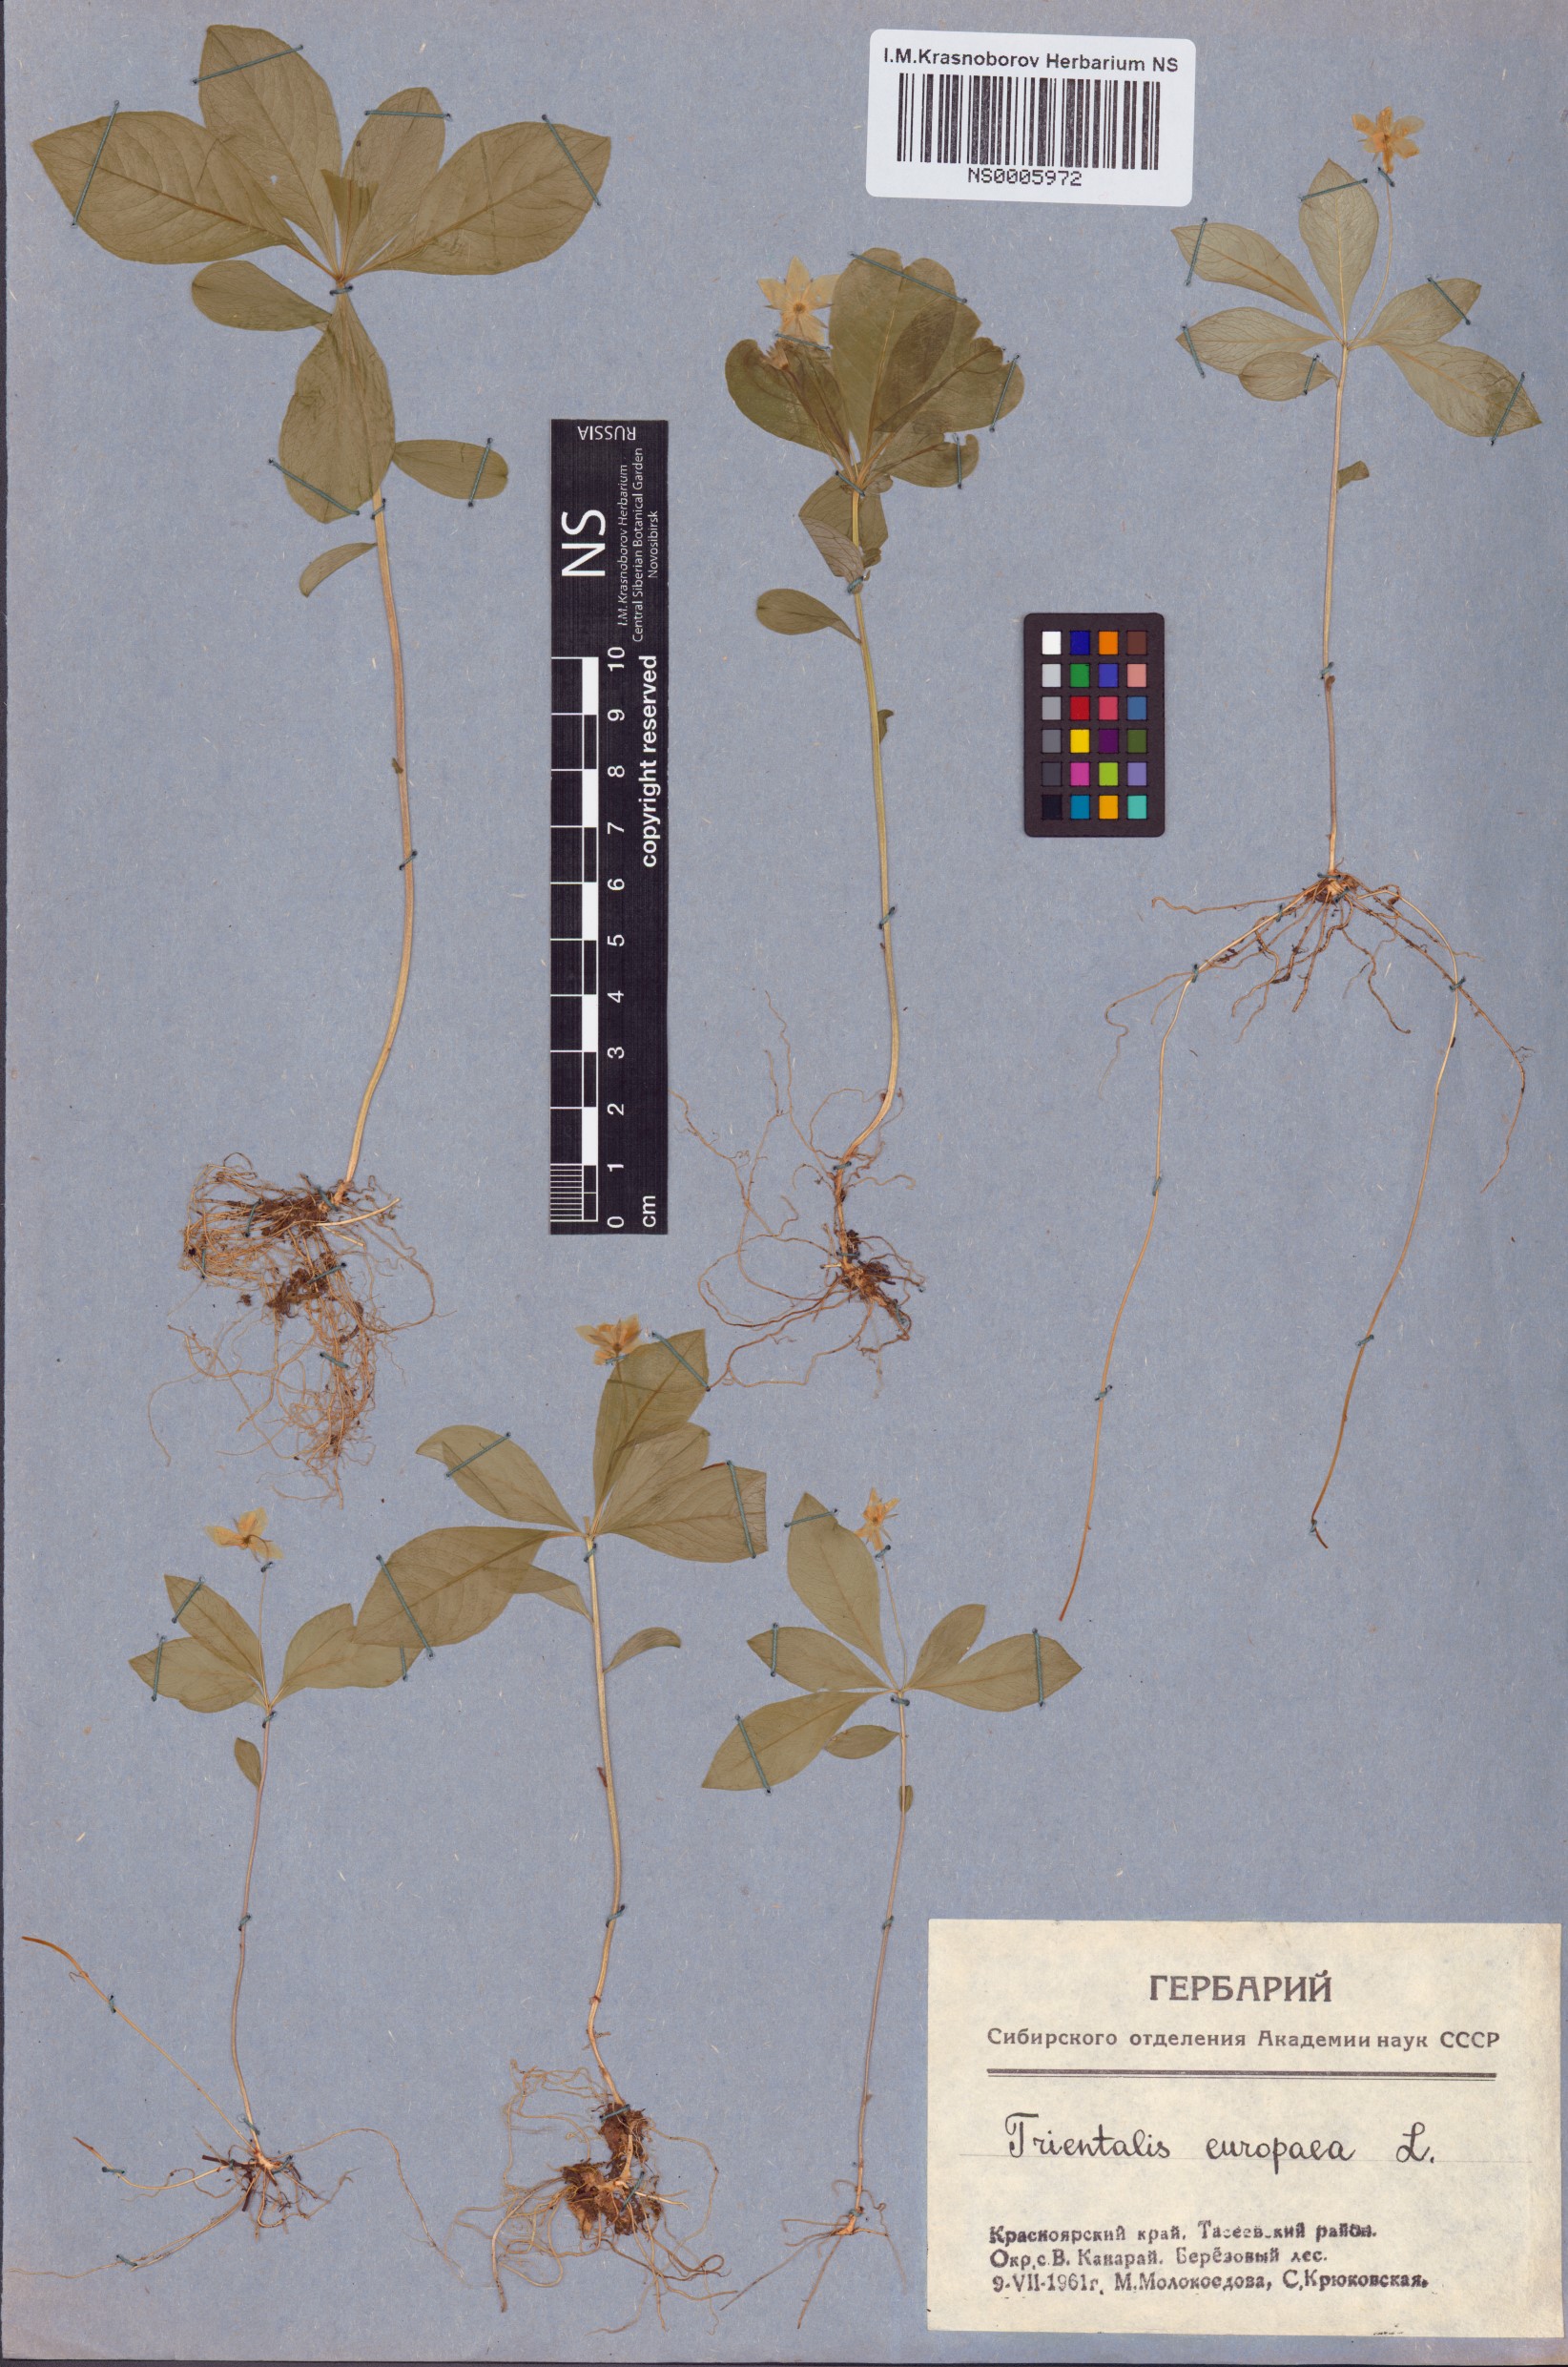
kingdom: Plantae
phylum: Tracheophyta
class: Magnoliopsida
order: Ericales
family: Primulaceae
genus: Lysimachia
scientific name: Lysimachia europaea
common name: Arctic starflower
